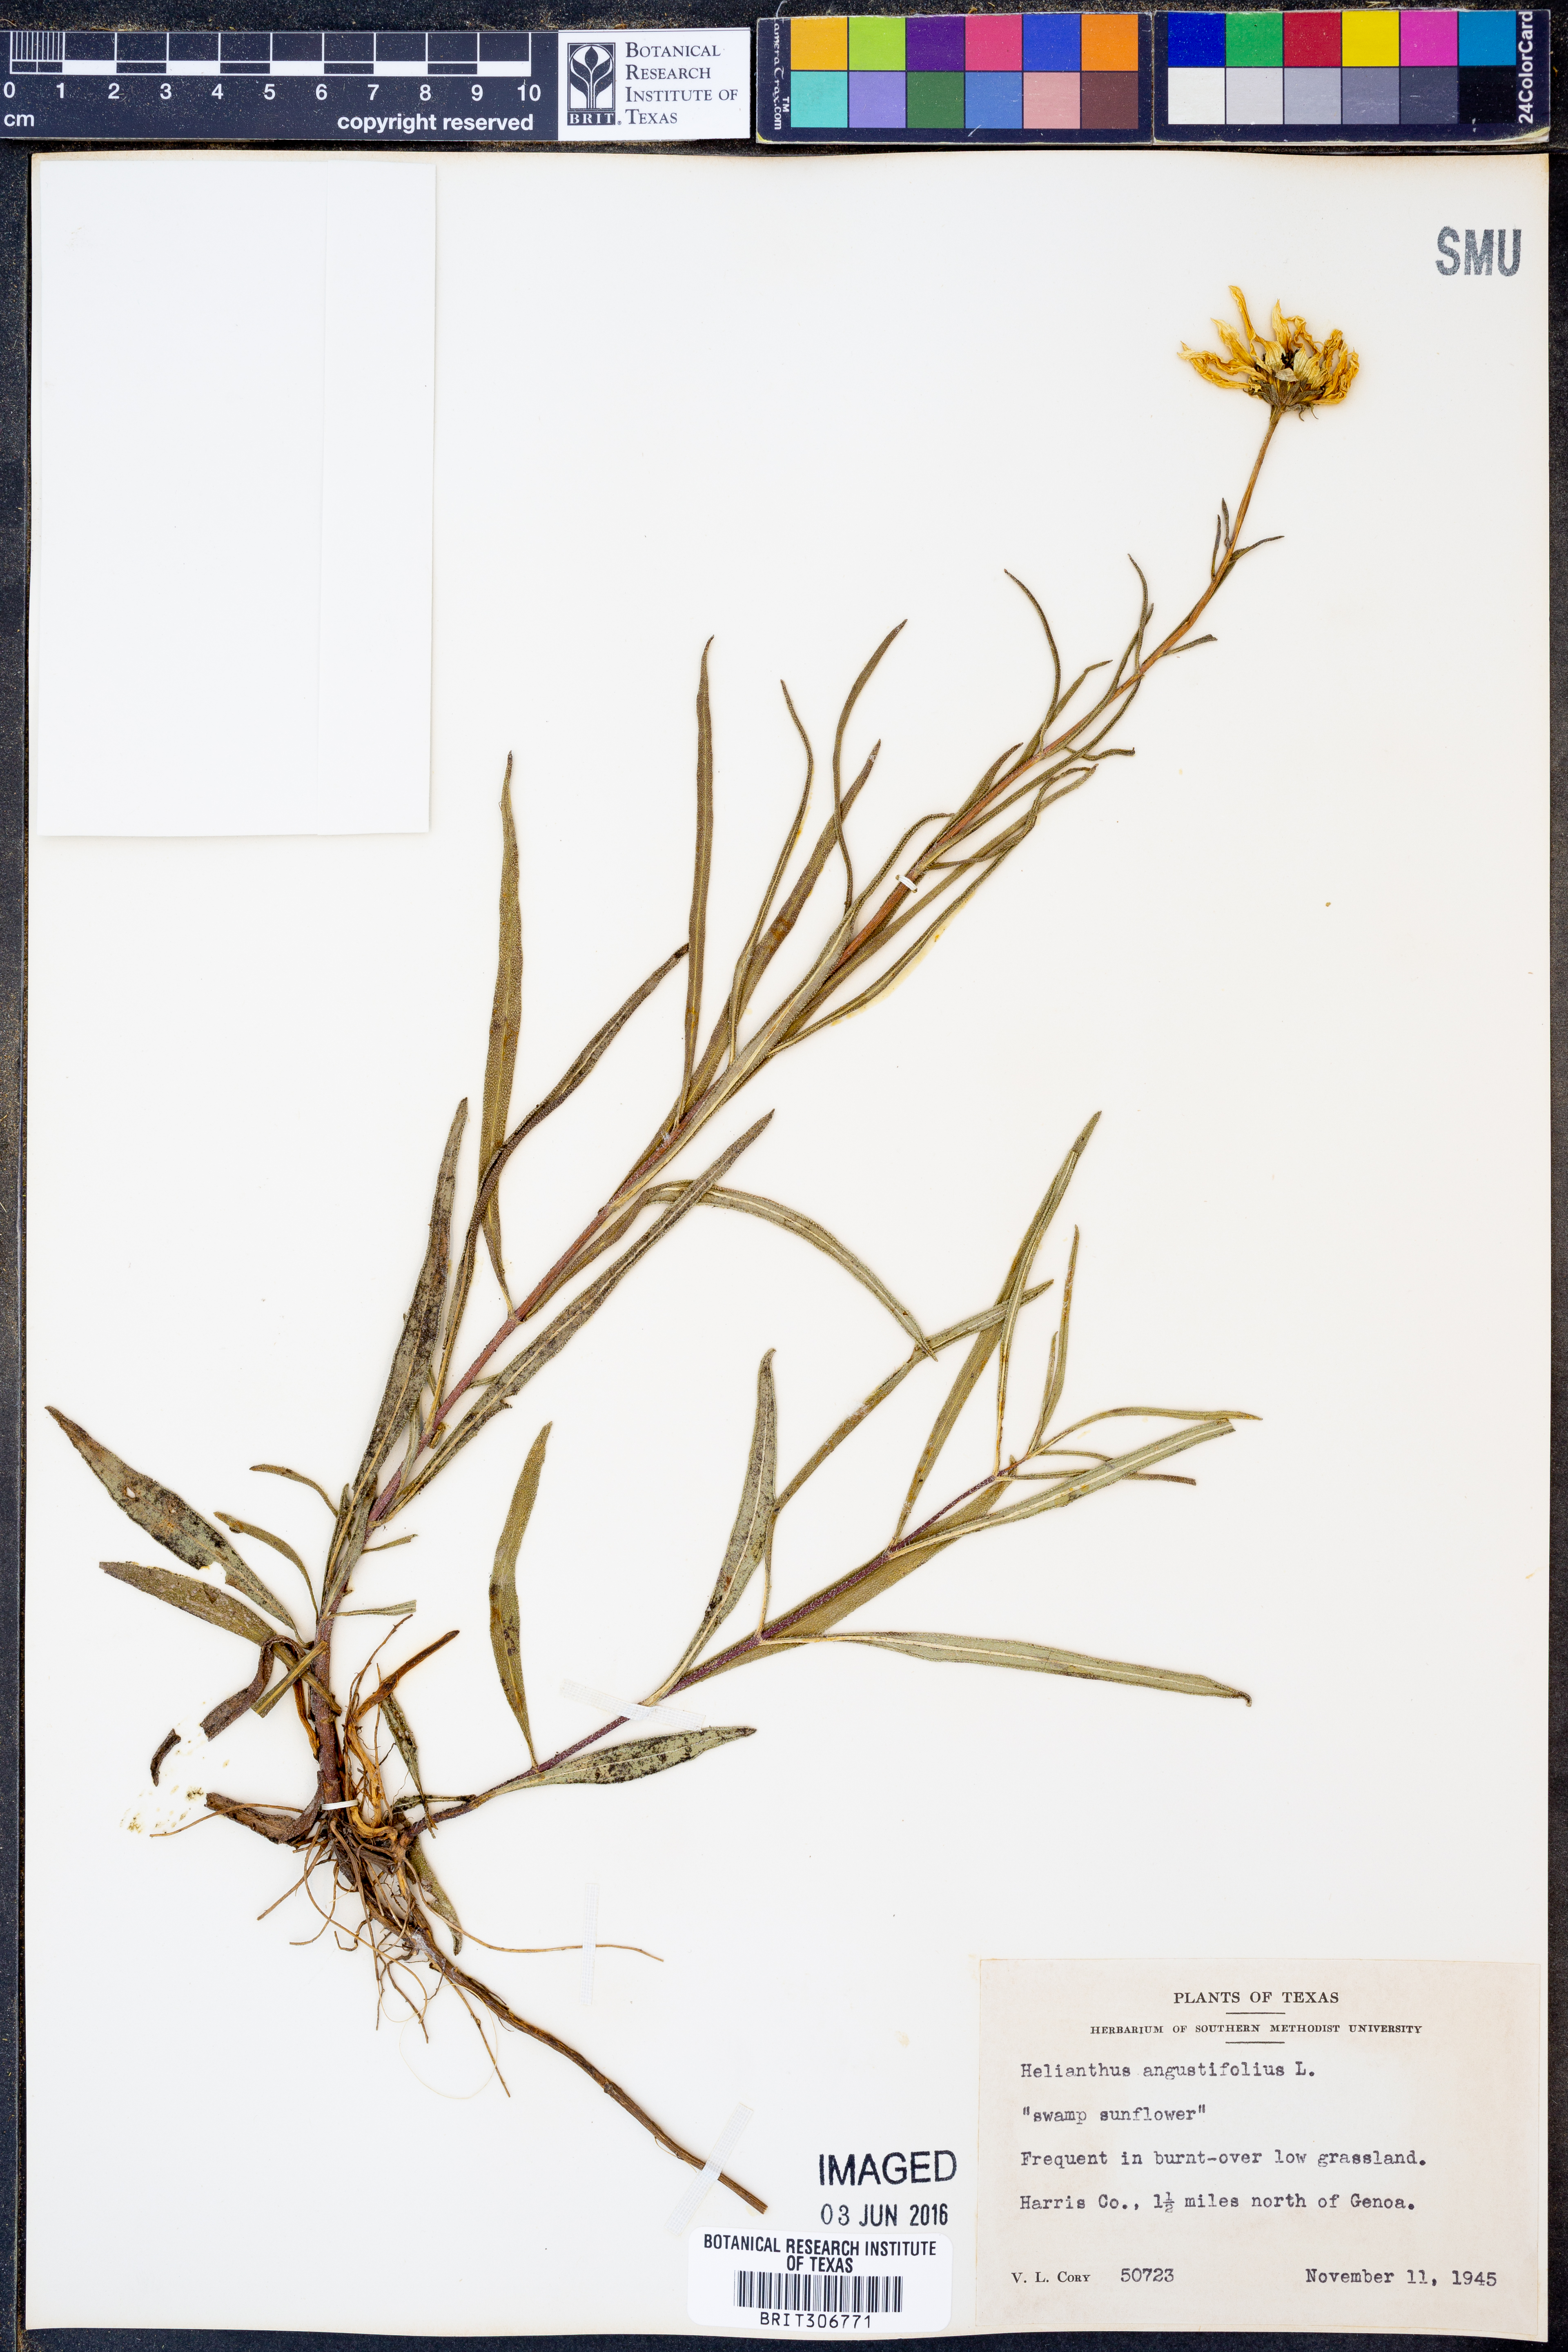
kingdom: Plantae
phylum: Tracheophyta
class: Magnoliopsida
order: Asterales
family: Asteraceae
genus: Helianthus
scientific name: Helianthus angustifolius
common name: Swamp sunflower
